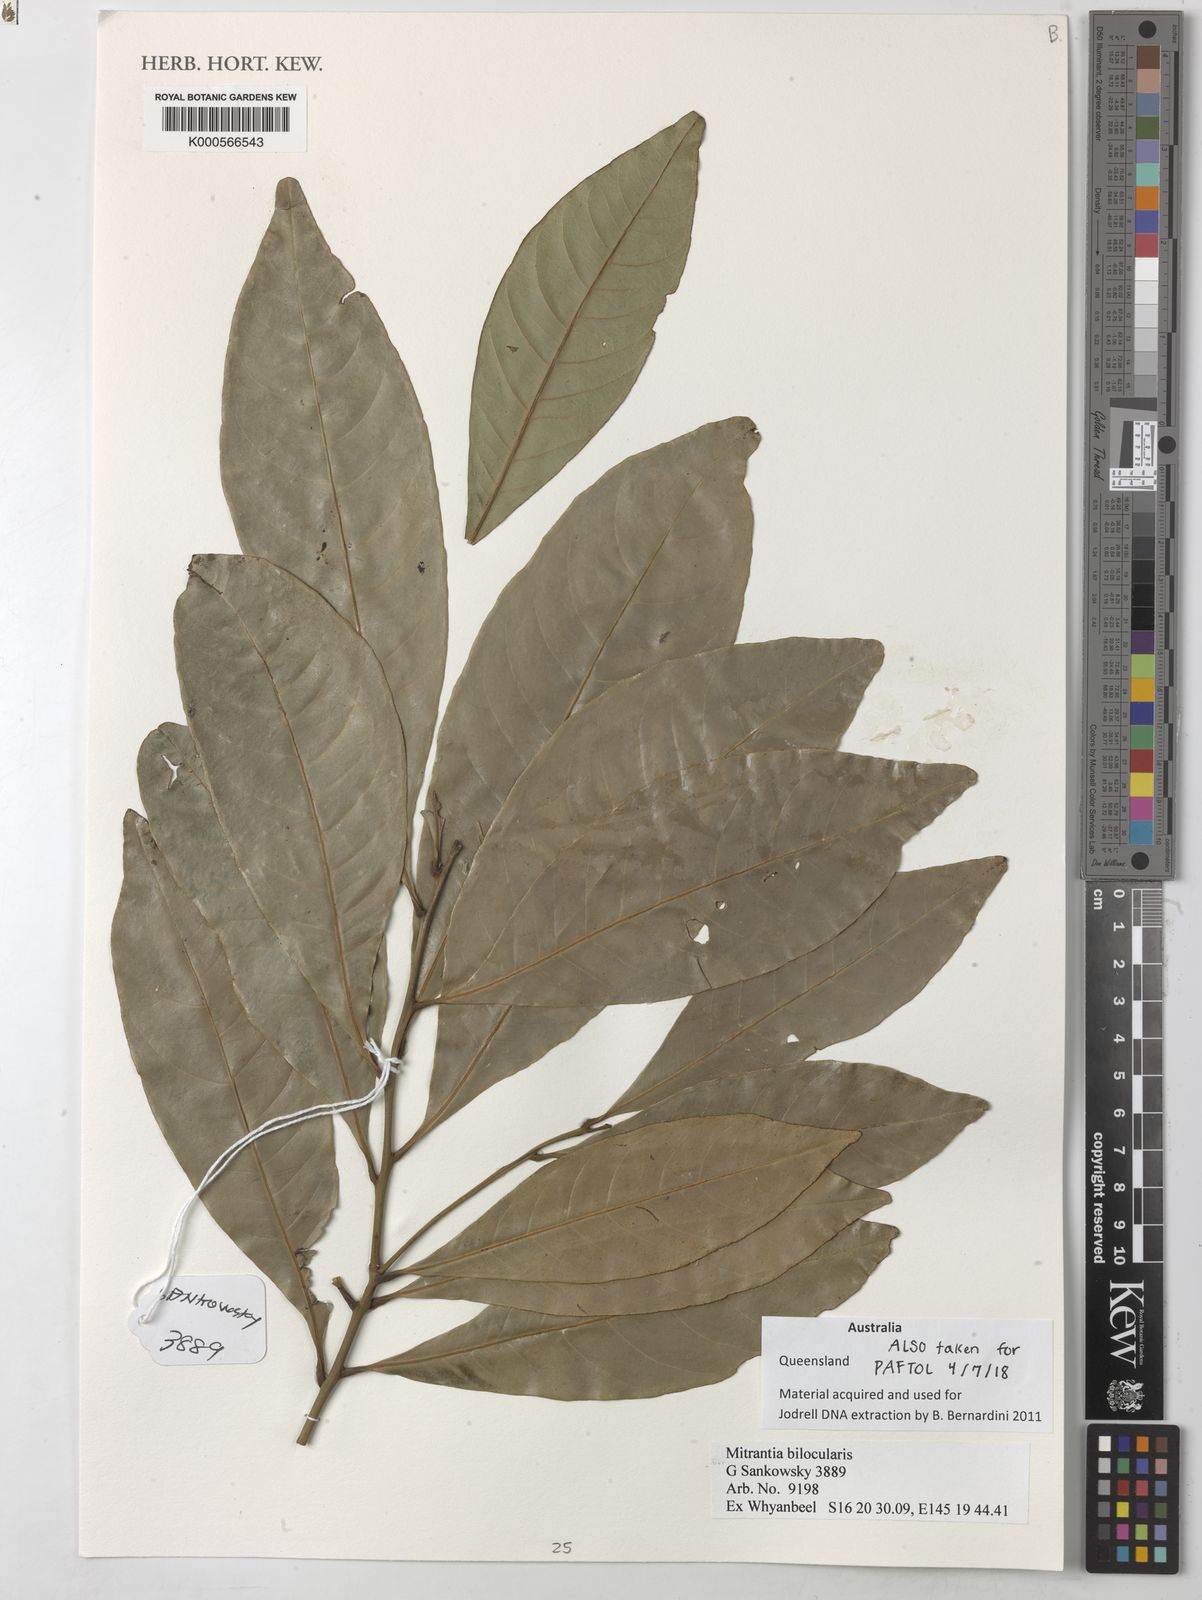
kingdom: Plantae
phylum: Tracheophyta
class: Magnoliopsida
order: Myrtales
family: Myrtaceae
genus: Mitrantia
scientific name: Mitrantia bilocularis
